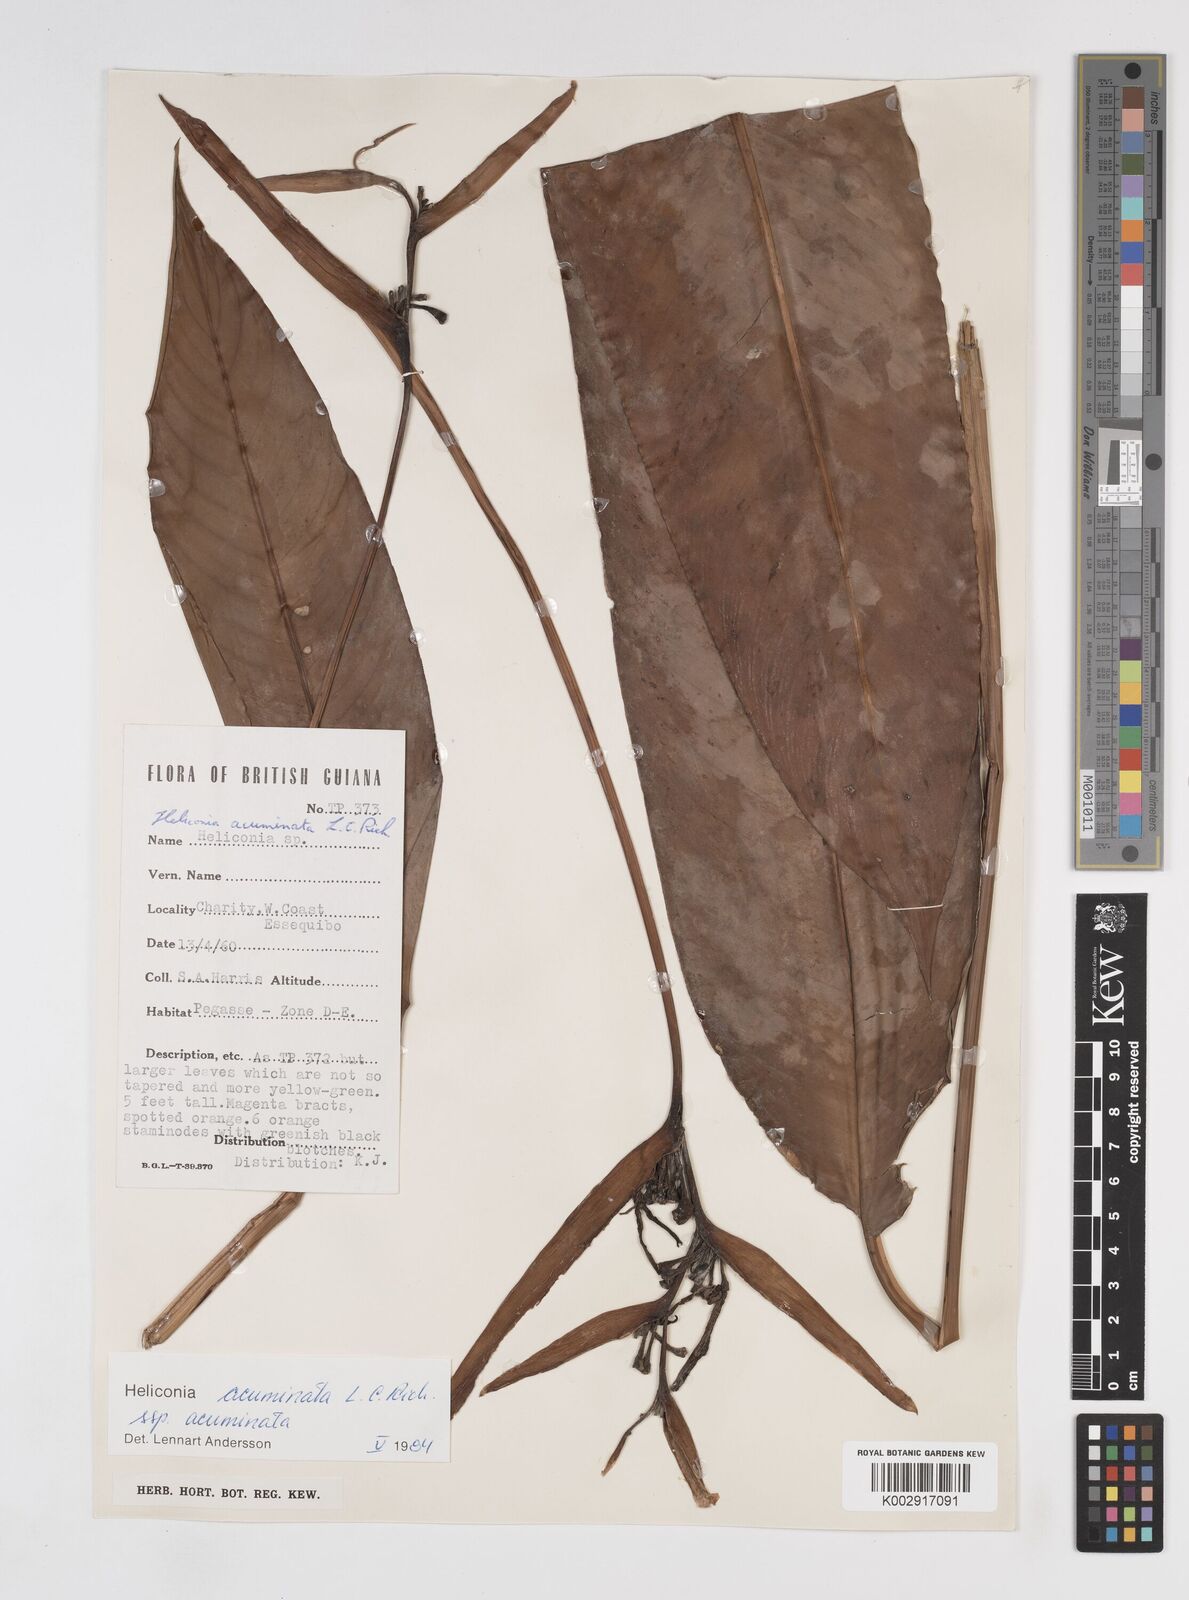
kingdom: Plantae
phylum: Tracheophyta
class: Liliopsida
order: Zingiberales
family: Heliconiaceae
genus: Heliconia
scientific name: Heliconia acuminata
